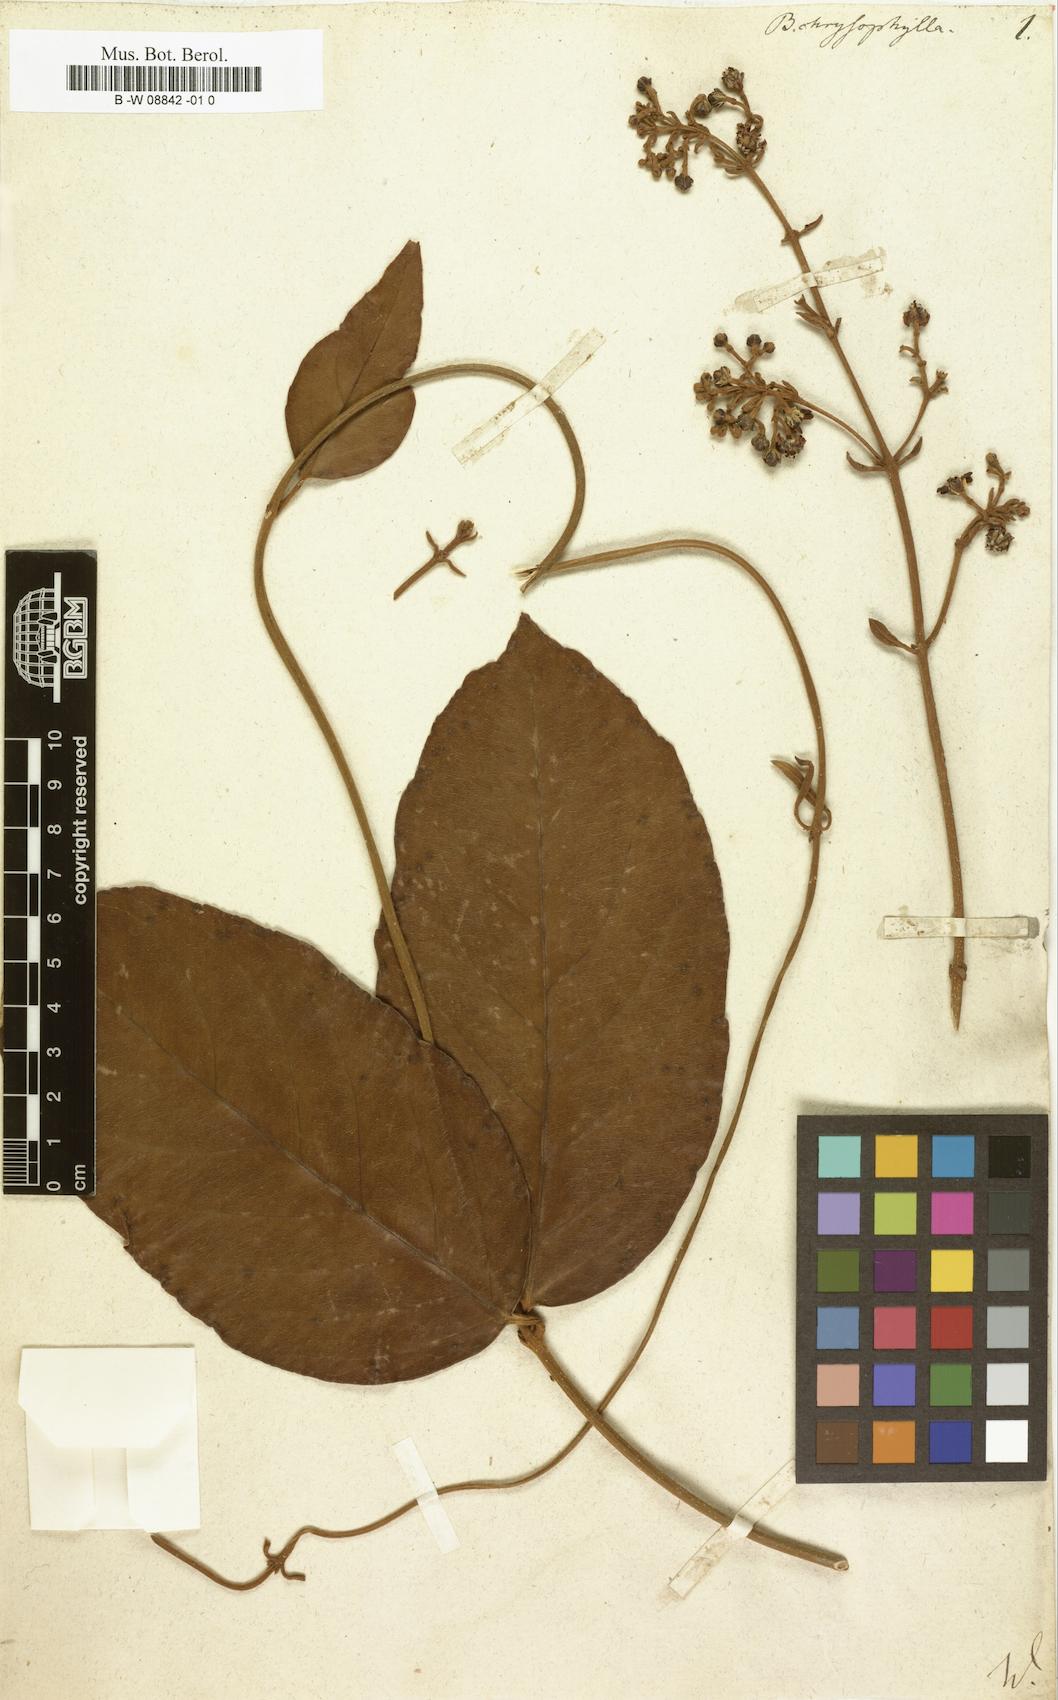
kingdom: Plantae
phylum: Tracheophyta
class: Magnoliopsida
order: Malpighiales
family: Malpighiaceae
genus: Heteropterys
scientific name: Heteropterys
